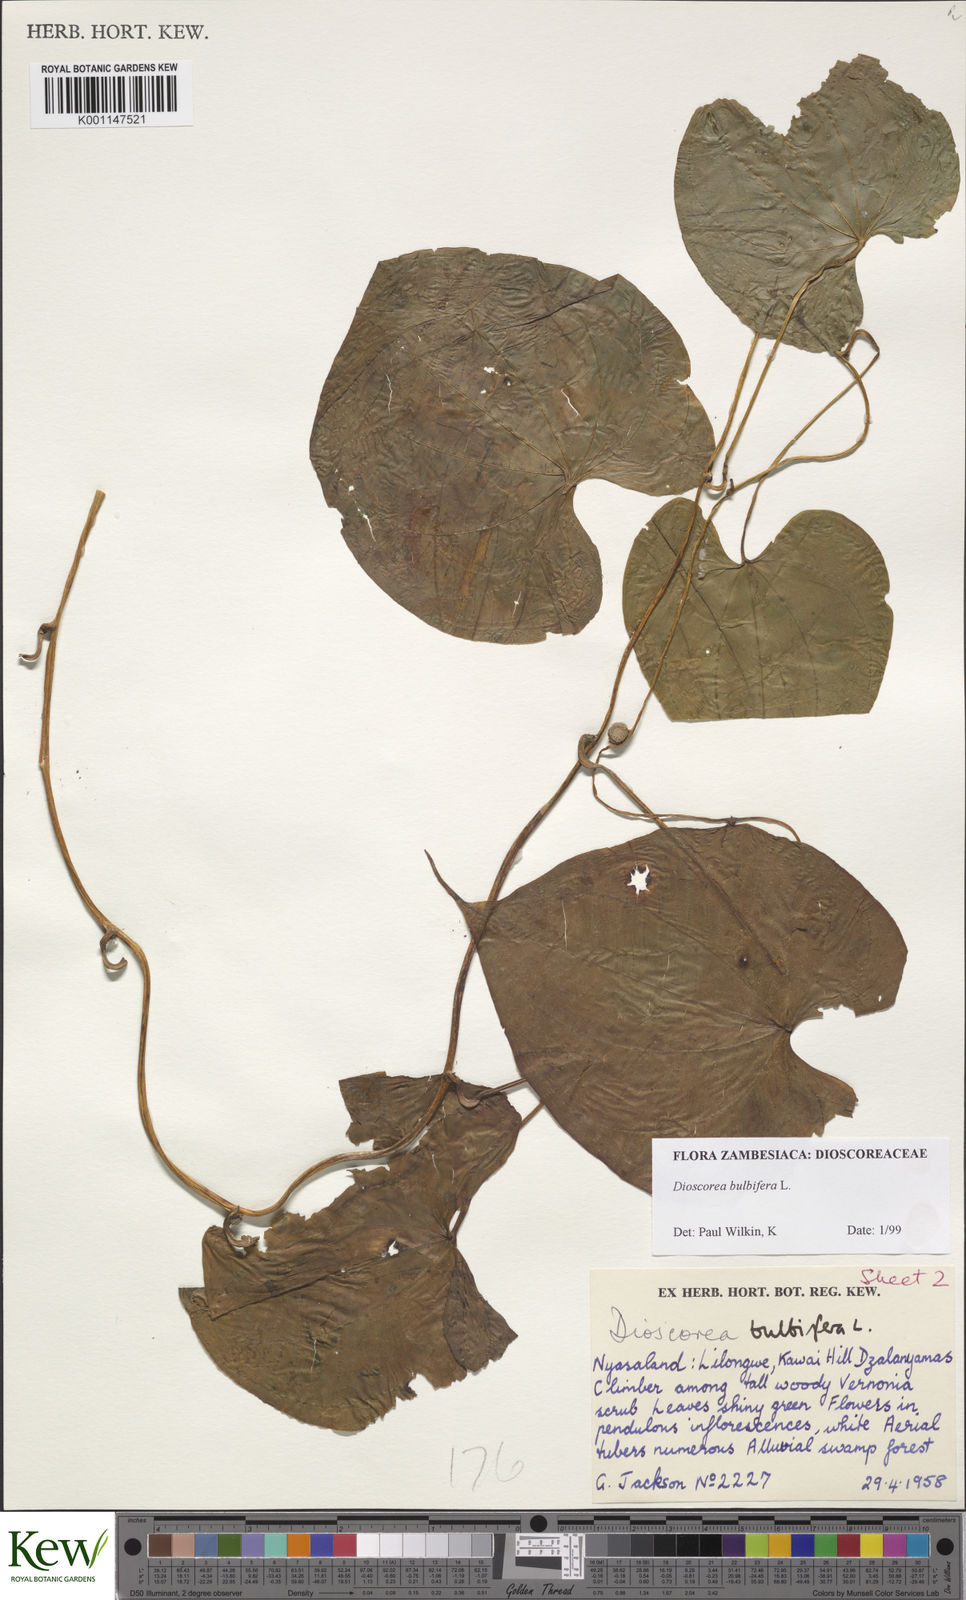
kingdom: Plantae
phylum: Tracheophyta
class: Liliopsida
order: Dioscoreales
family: Dioscoreaceae
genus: Dioscorea
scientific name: Dioscorea bulbifera
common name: Air yam
